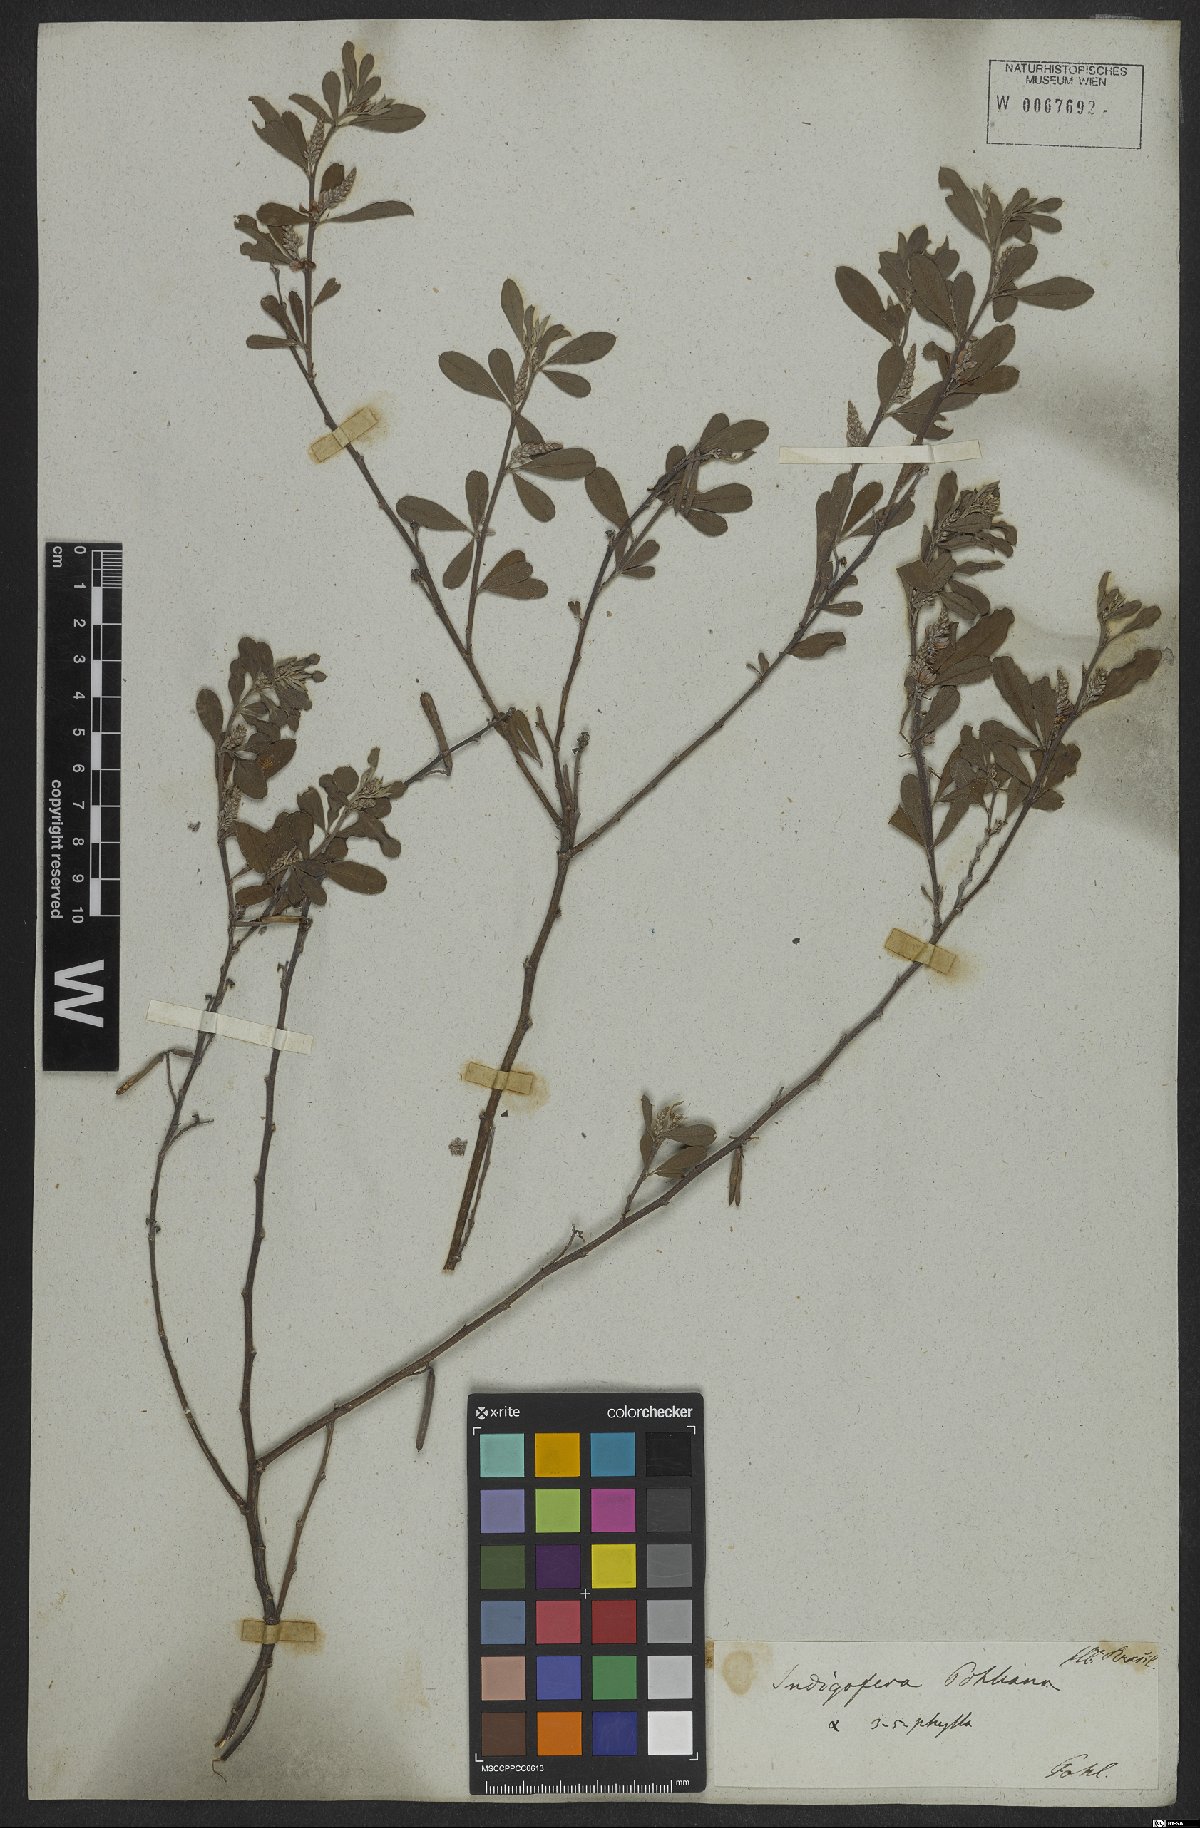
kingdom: Plantae
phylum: Tracheophyta
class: Magnoliopsida
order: Fabales
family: Fabaceae
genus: Indigofera
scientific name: Indigofera lespedezioides
